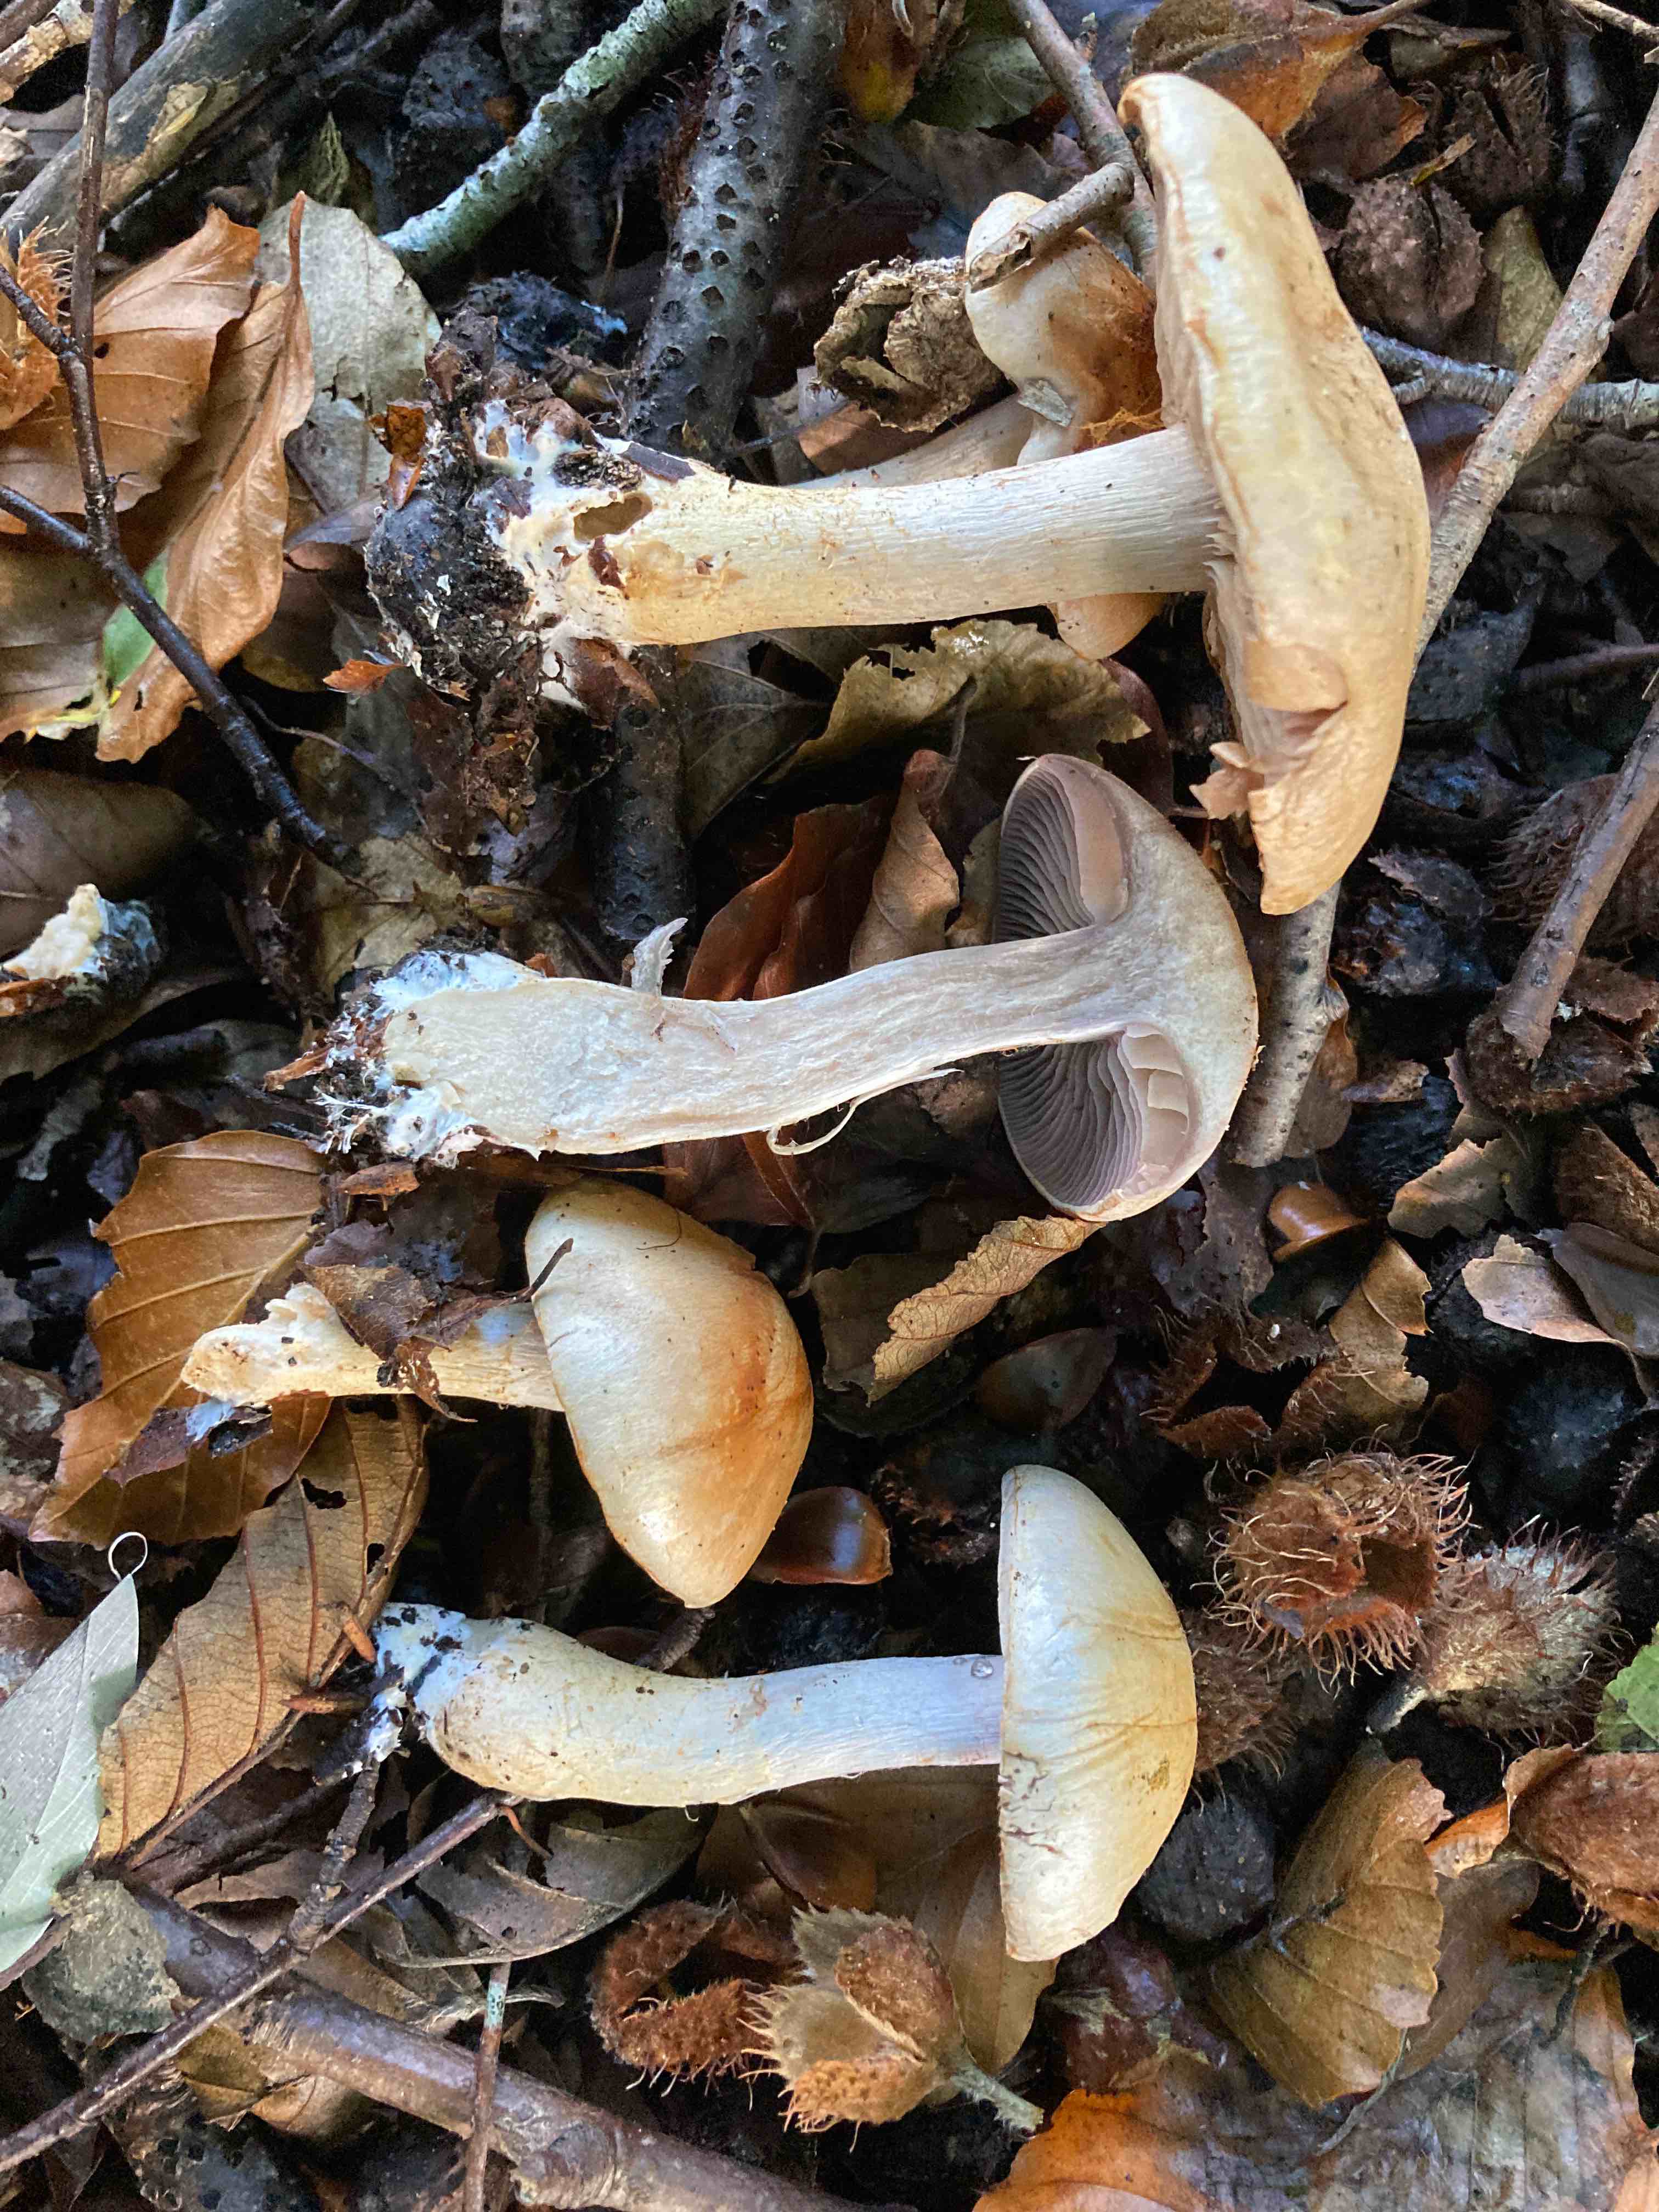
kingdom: Fungi
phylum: Basidiomycota
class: Agaricomycetes
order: Agaricales
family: Cortinariaceae
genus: Cortinarius
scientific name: Cortinarius
